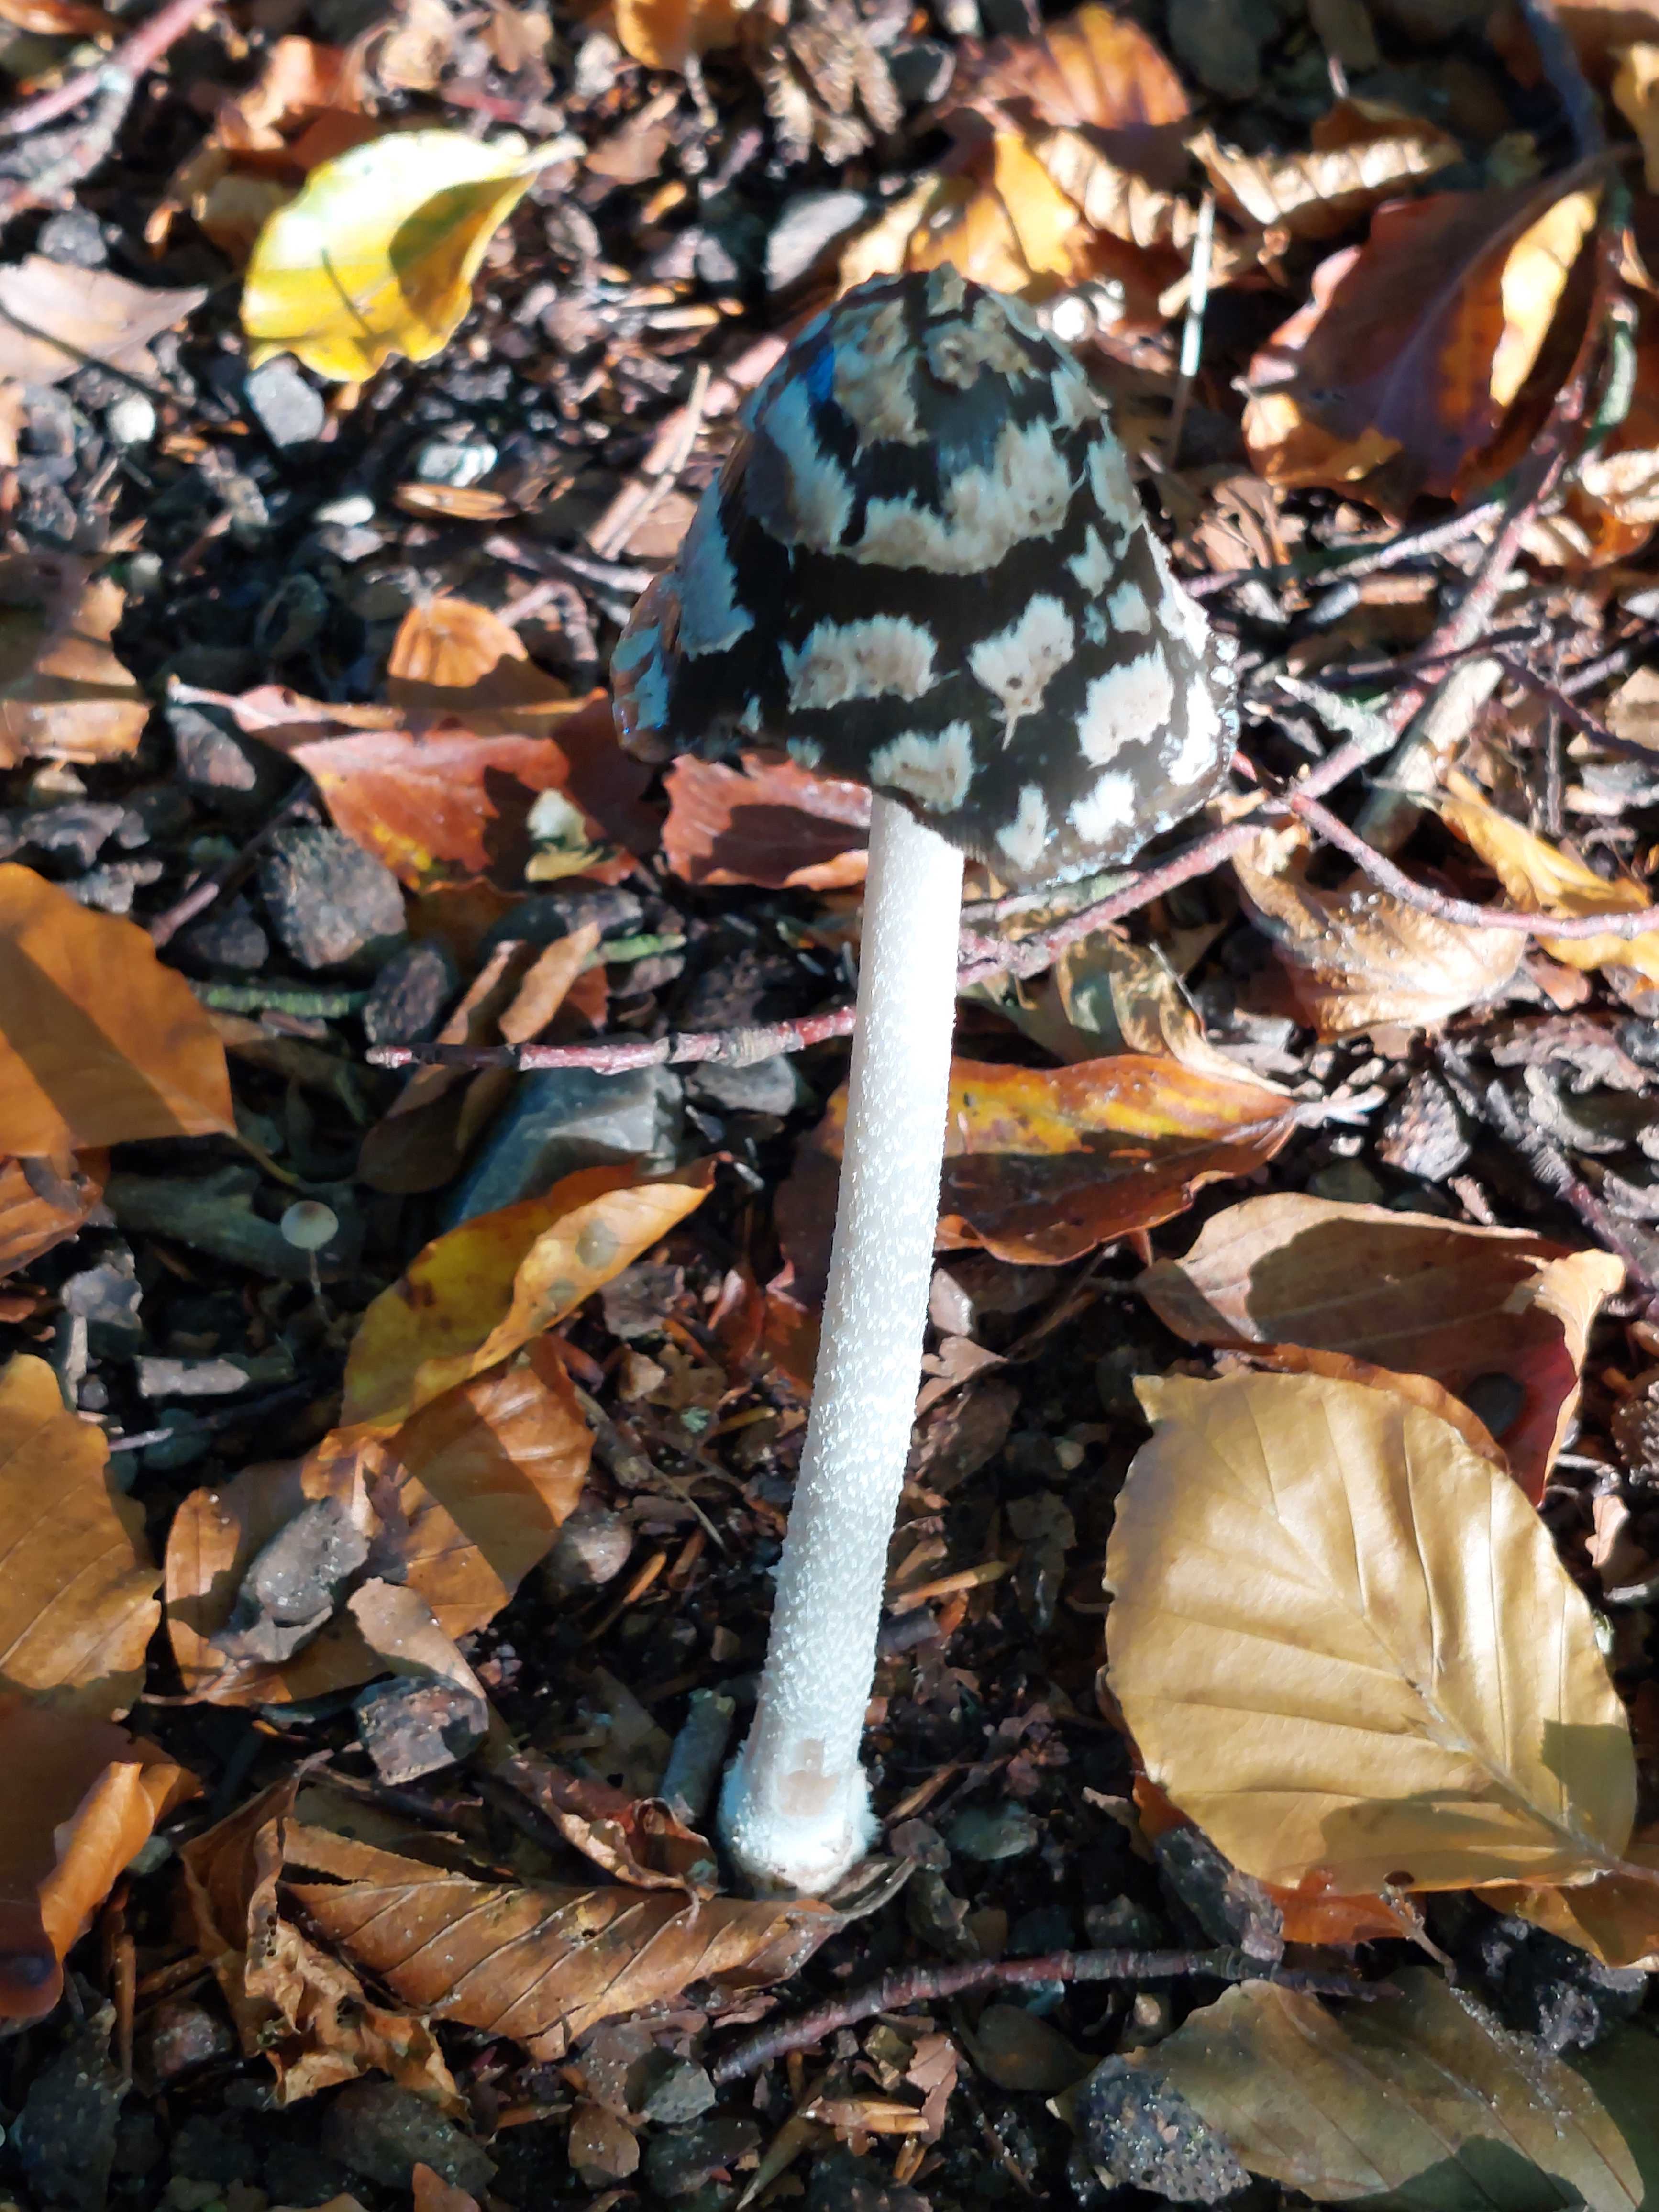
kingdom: Fungi
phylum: Basidiomycota
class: Agaricomycetes
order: Agaricales
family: Psathyrellaceae
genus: Coprinopsis
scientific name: Coprinopsis picacea
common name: skade-blækhat
